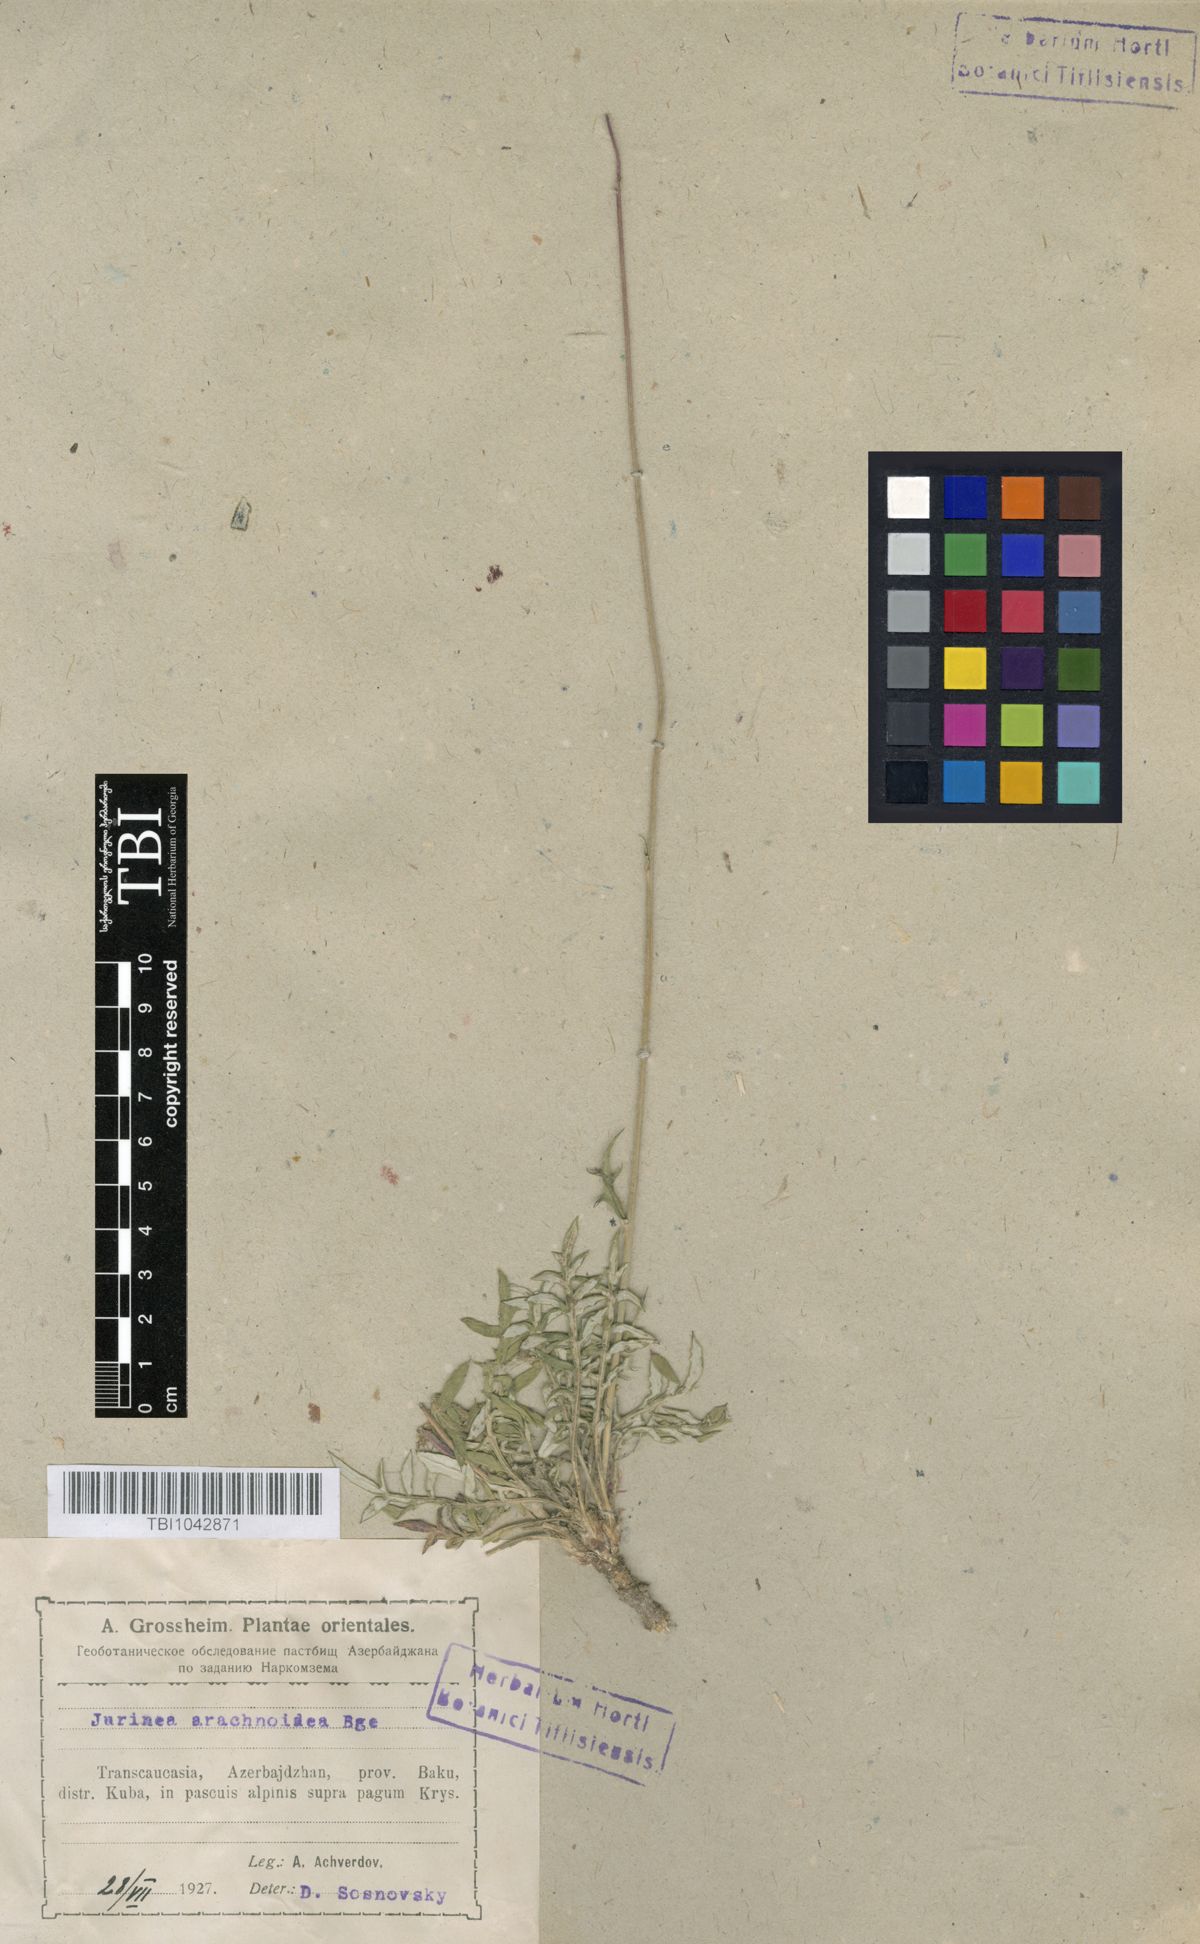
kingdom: Plantae
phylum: Tracheophyta
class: Magnoliopsida
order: Asterales
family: Asteraceae
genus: Jurinea
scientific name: Jurinea blanda
